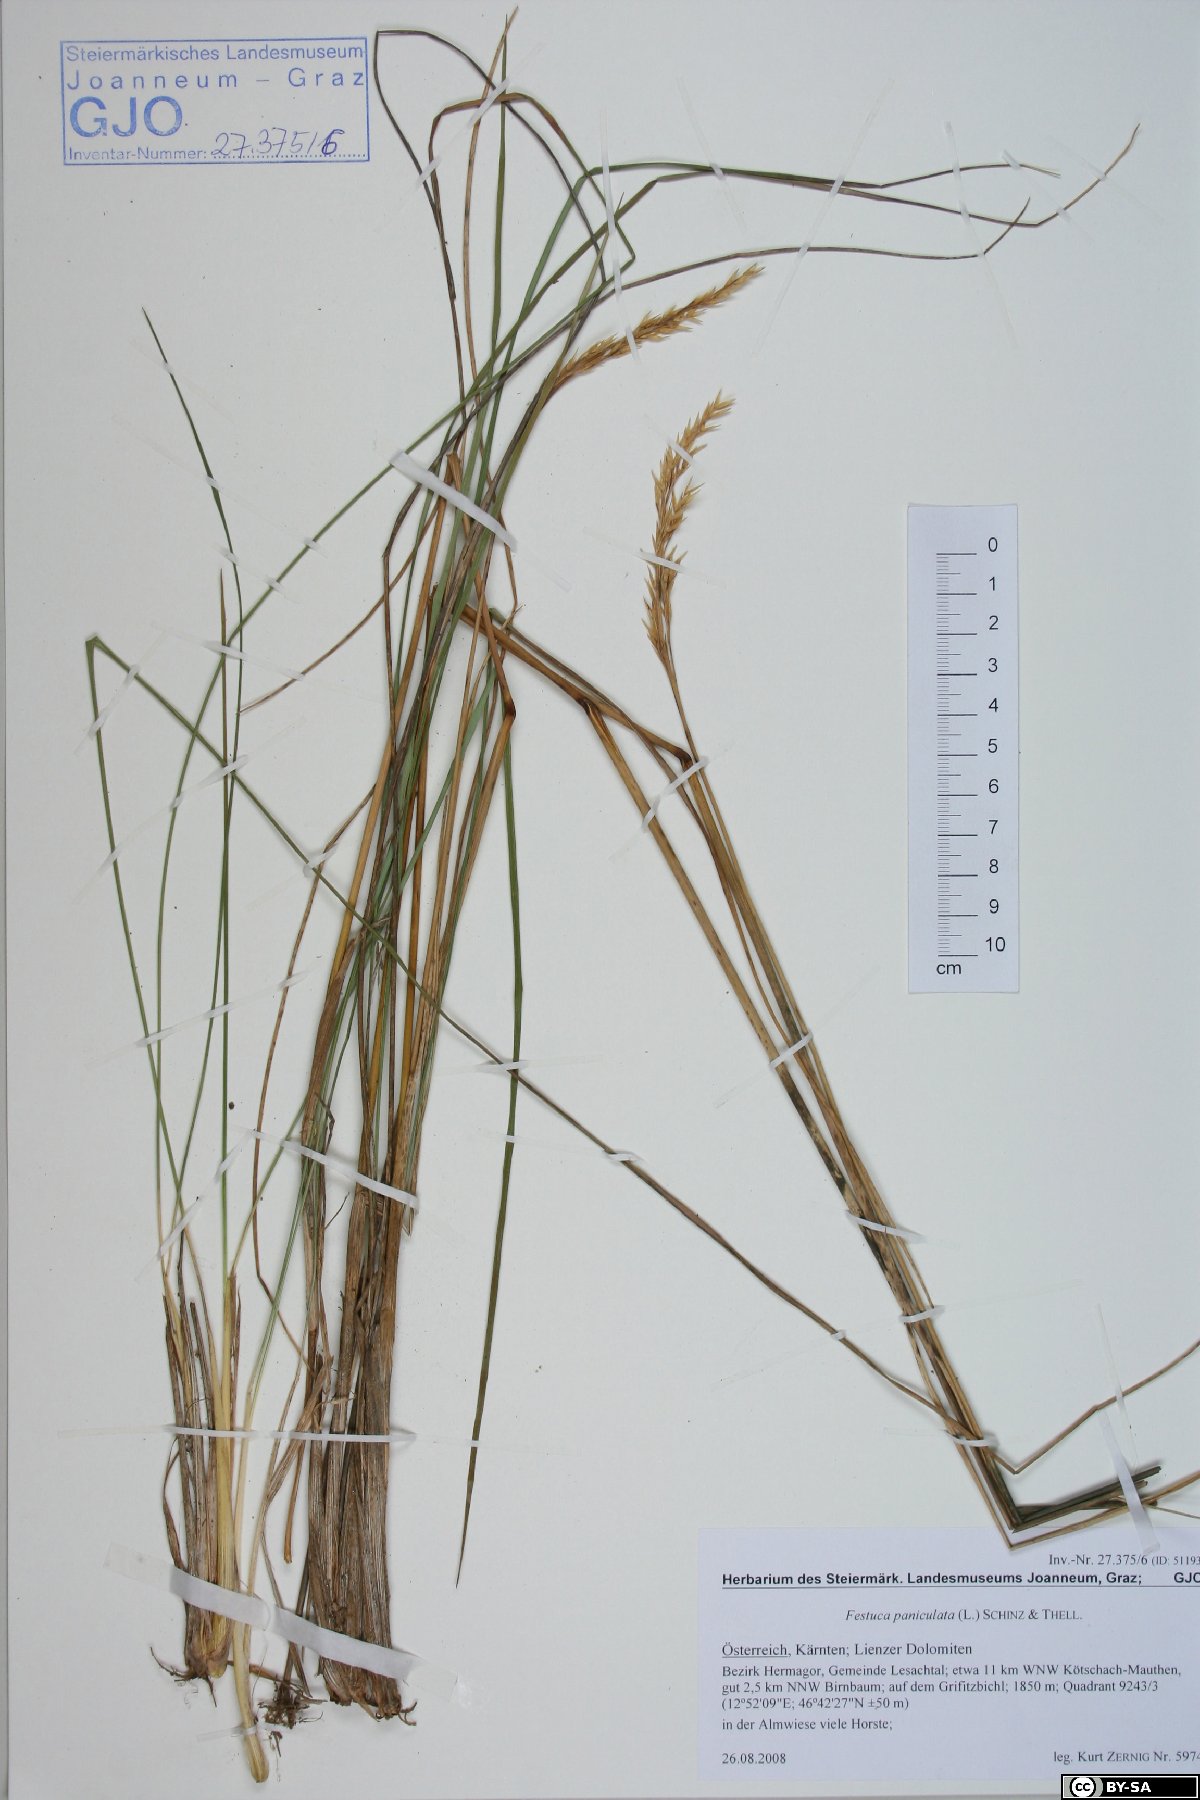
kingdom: Plantae
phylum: Tracheophyta
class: Liliopsida
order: Poales
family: Poaceae
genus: Patzkea
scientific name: Patzkea paniculata
